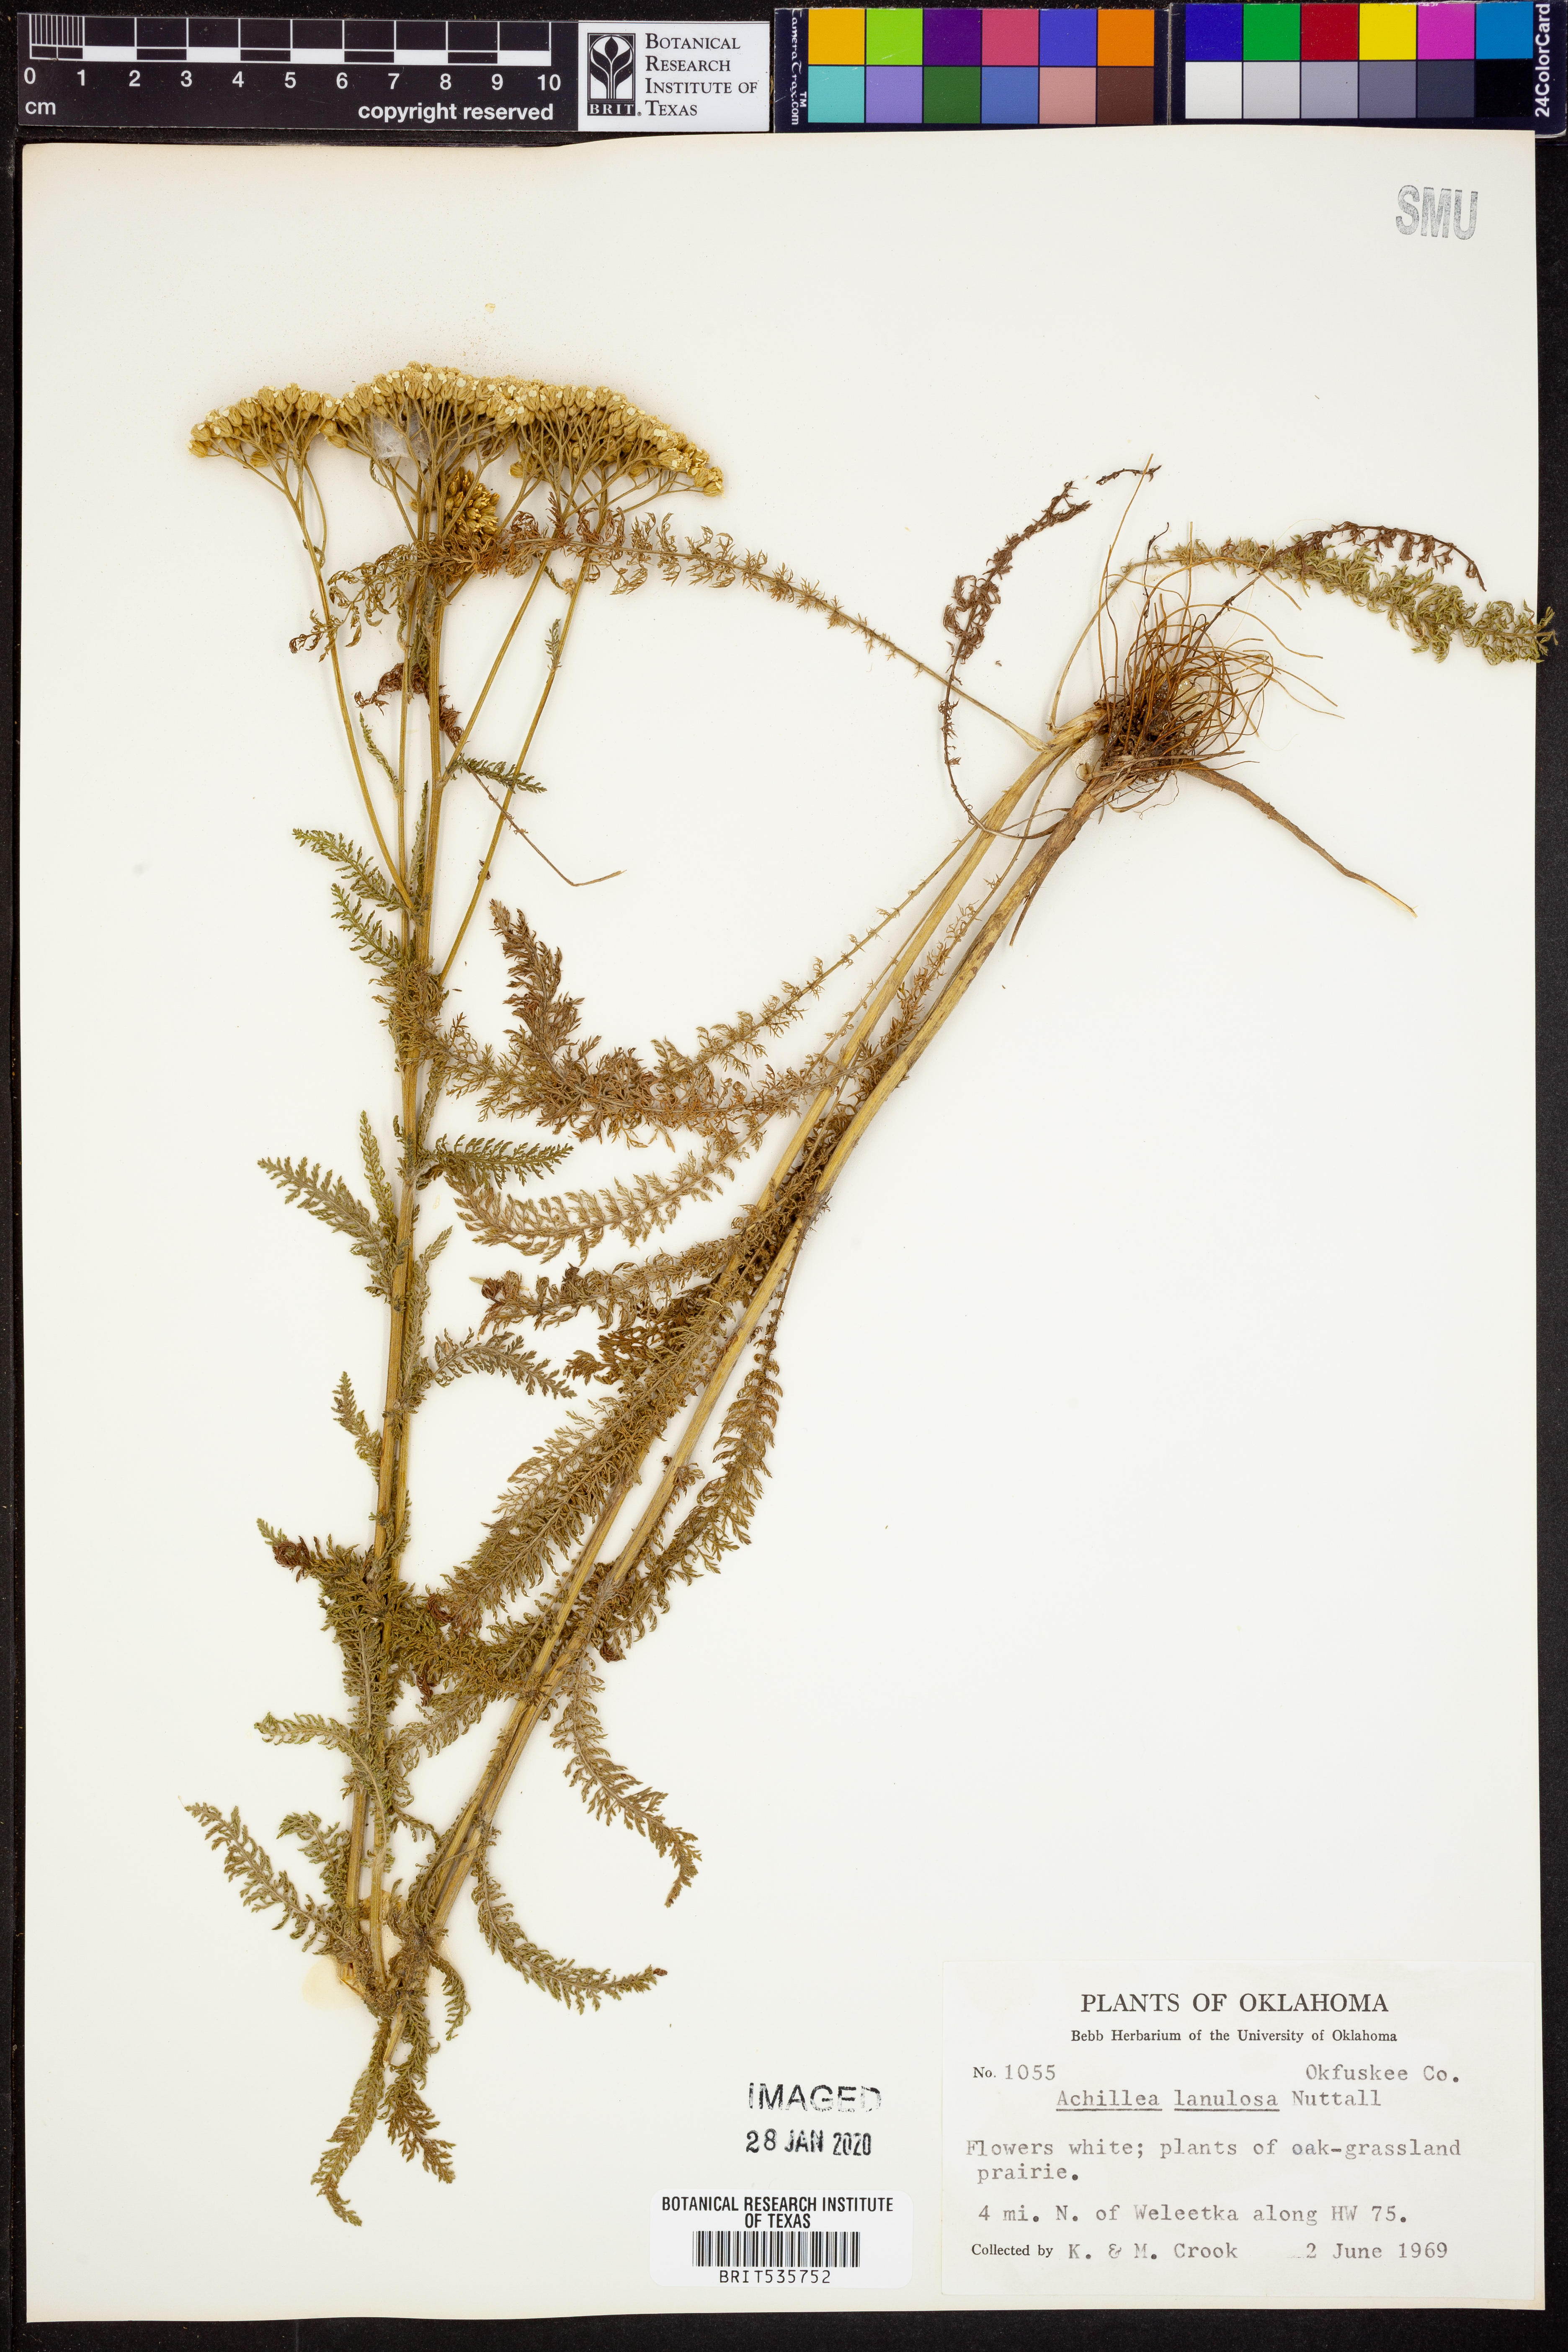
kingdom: Plantae
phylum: Tracheophyta
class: Magnoliopsida
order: Asterales
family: Asteraceae
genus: Achillea
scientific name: Achillea millefolium
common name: Yarrow
